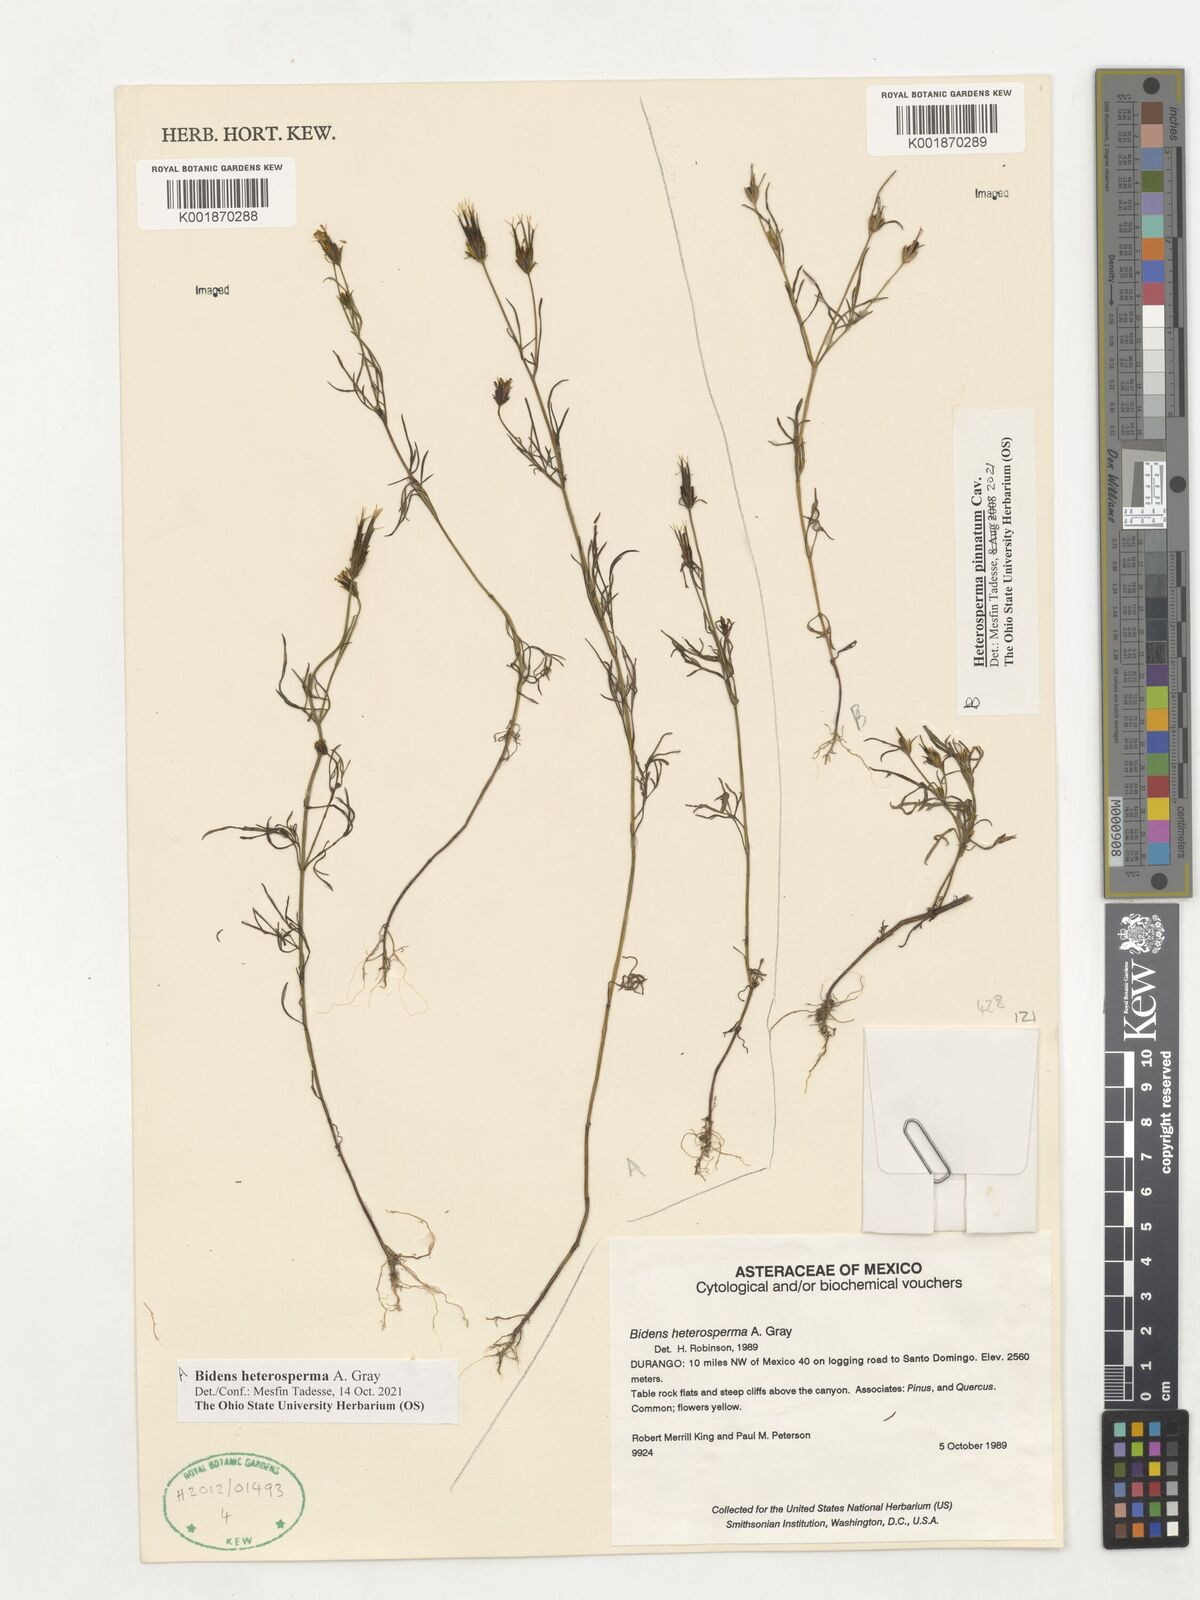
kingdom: Plantae
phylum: Tracheophyta
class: Magnoliopsida
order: Asterales
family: Asteraceae
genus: Heterosperma
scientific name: Heterosperma pinnatum
